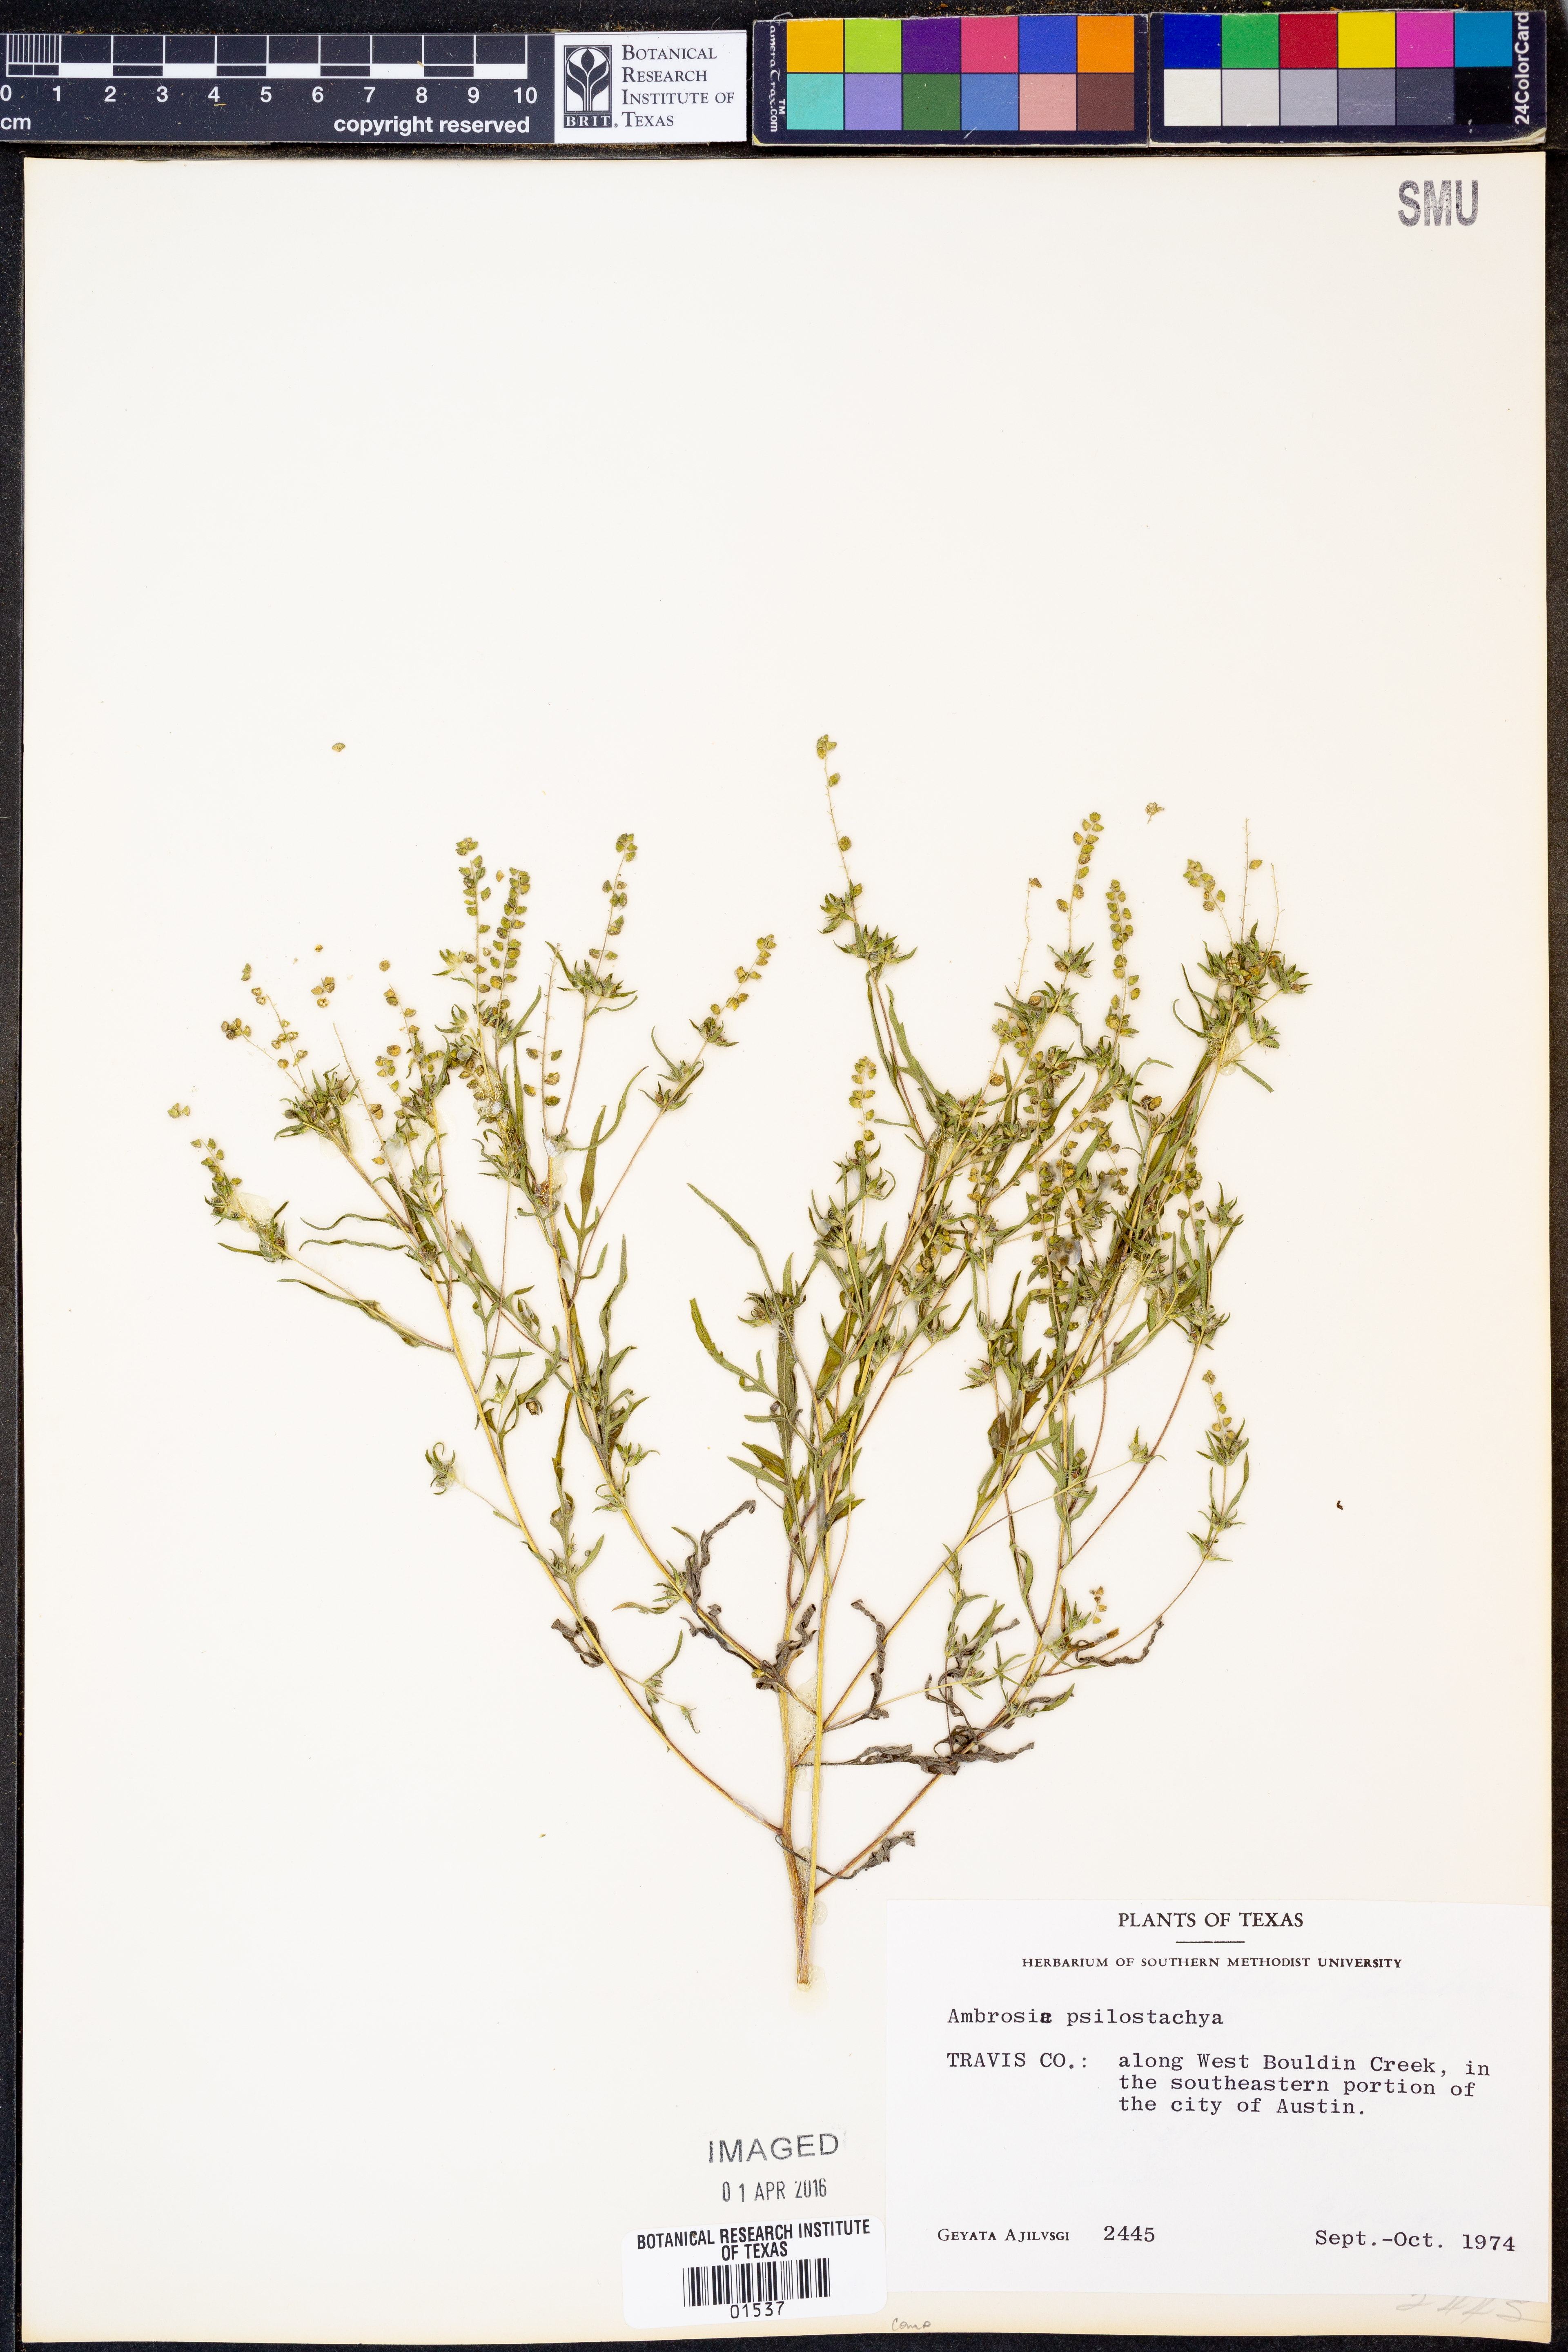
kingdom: Plantae
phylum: Tracheophyta
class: Magnoliopsida
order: Asterales
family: Asteraceae
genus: Ambrosia
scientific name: Ambrosia psilostachya
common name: Perennial ragweed
